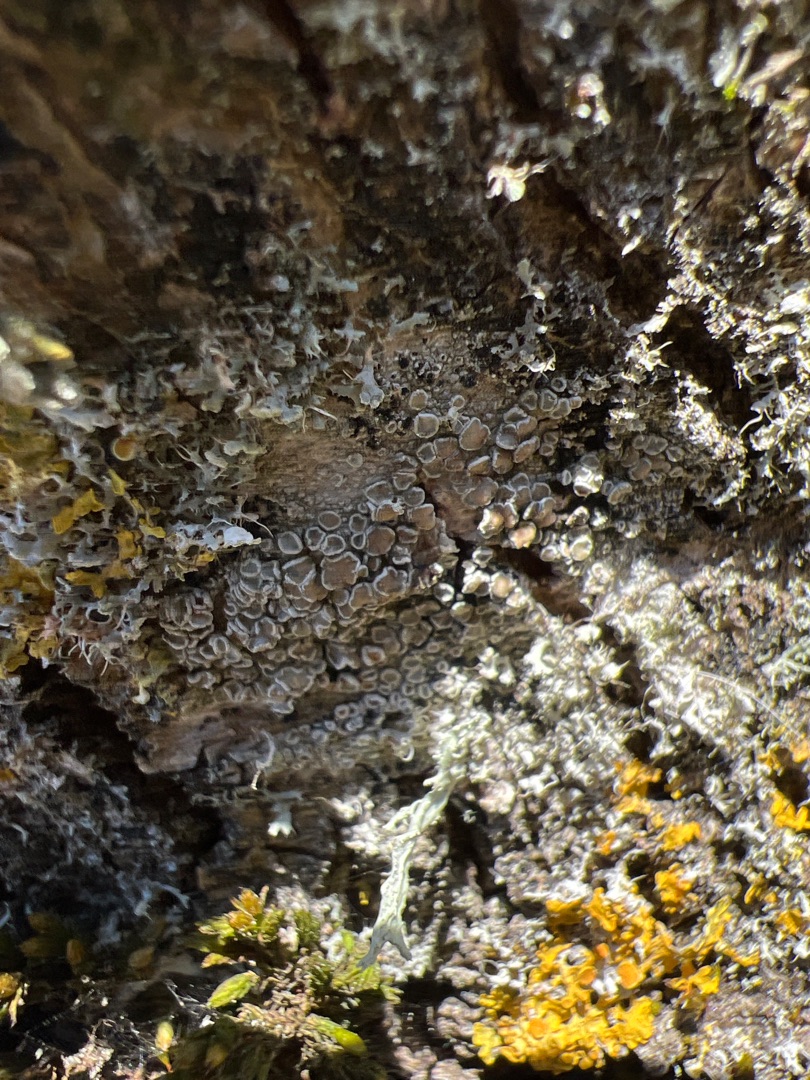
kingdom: Fungi
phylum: Ascomycota
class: Lecanoromycetes
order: Lecanorales
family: Lecanoraceae
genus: Lecanora
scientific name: Lecanora chlarotera
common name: Brun kantskivelav
